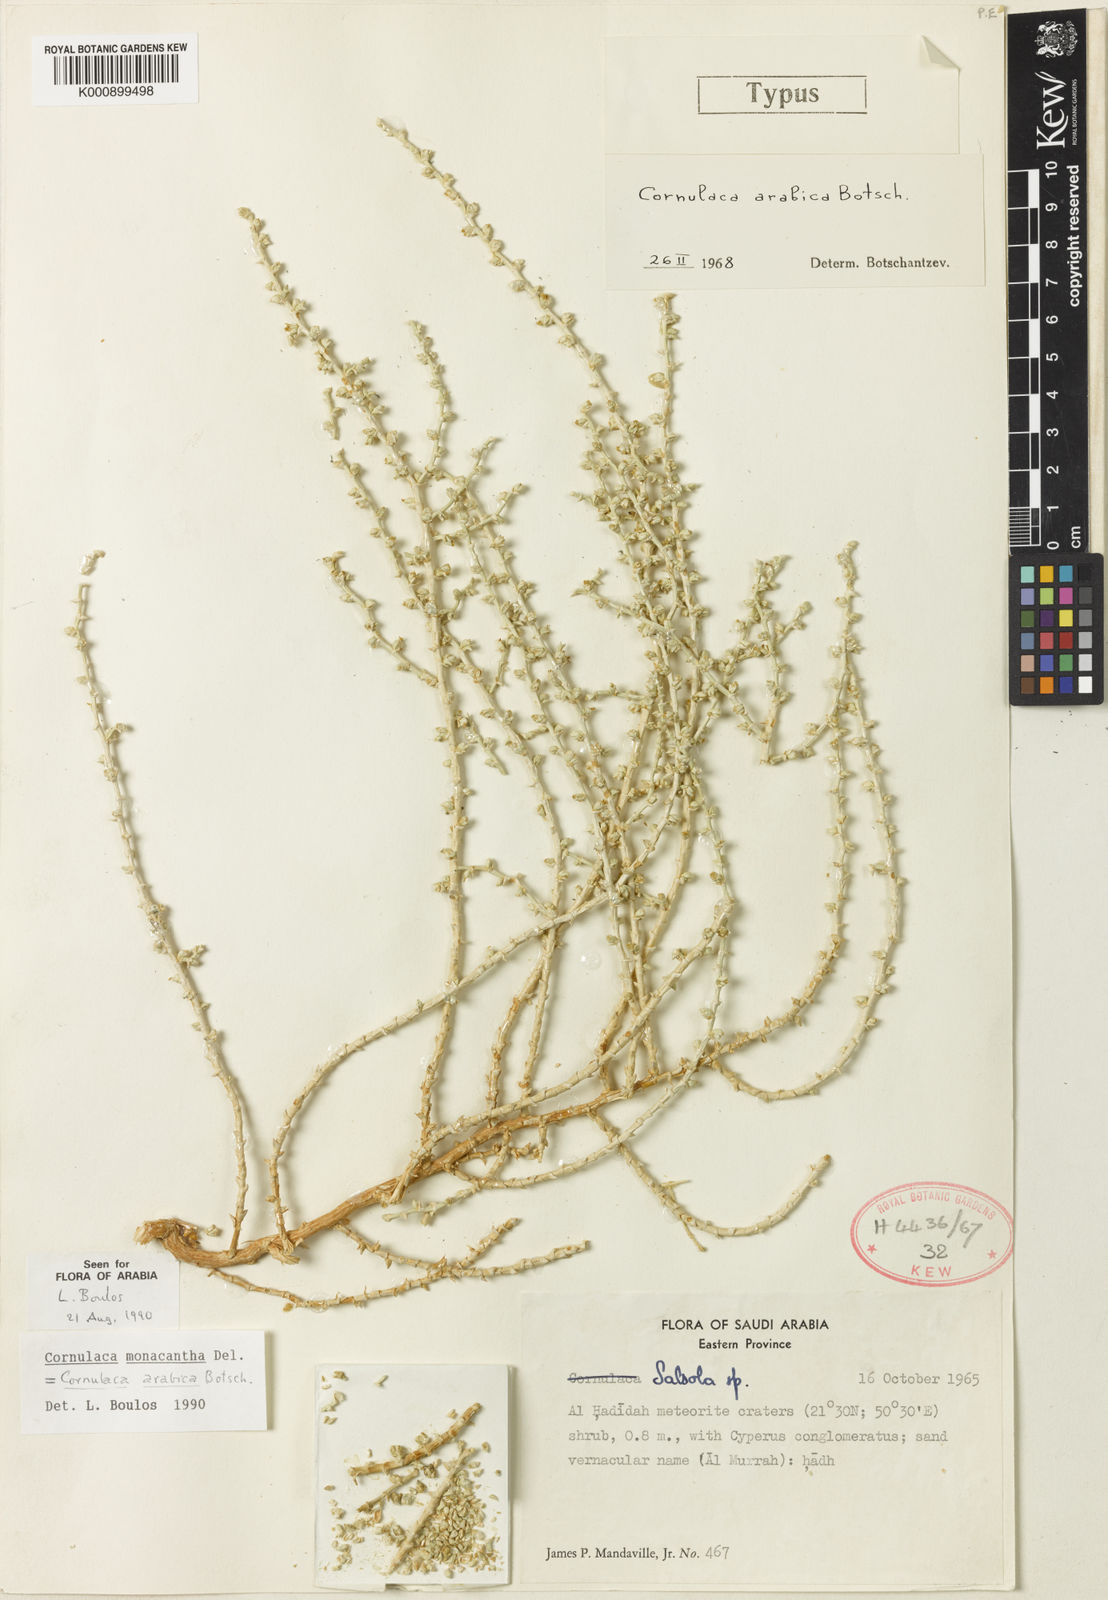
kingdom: Plantae
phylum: Tracheophyta
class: Magnoliopsida
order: Caryophyllales
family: Amaranthaceae
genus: Cornulaca
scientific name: Cornulaca monacantha
